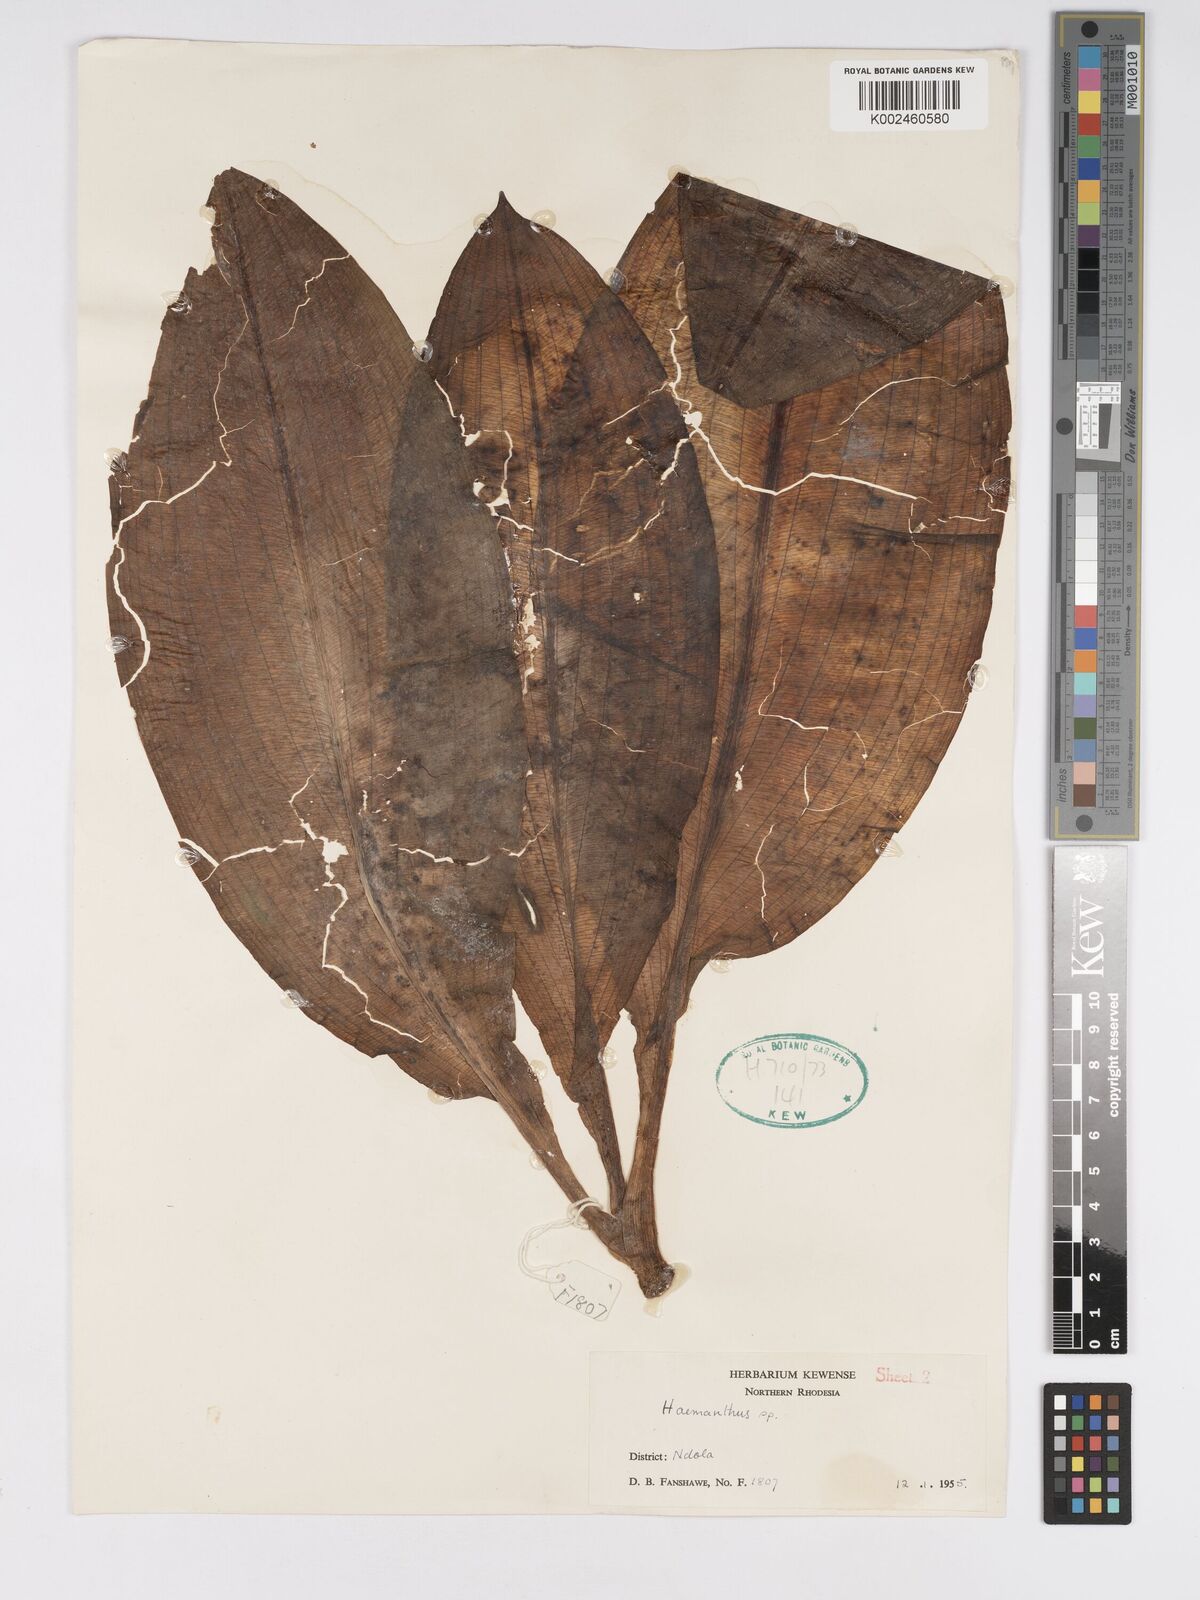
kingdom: Plantae
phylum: Tracheophyta
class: Liliopsida
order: Asparagales
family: Amaryllidaceae
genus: Scadoxus
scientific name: Scadoxus multiflorus
